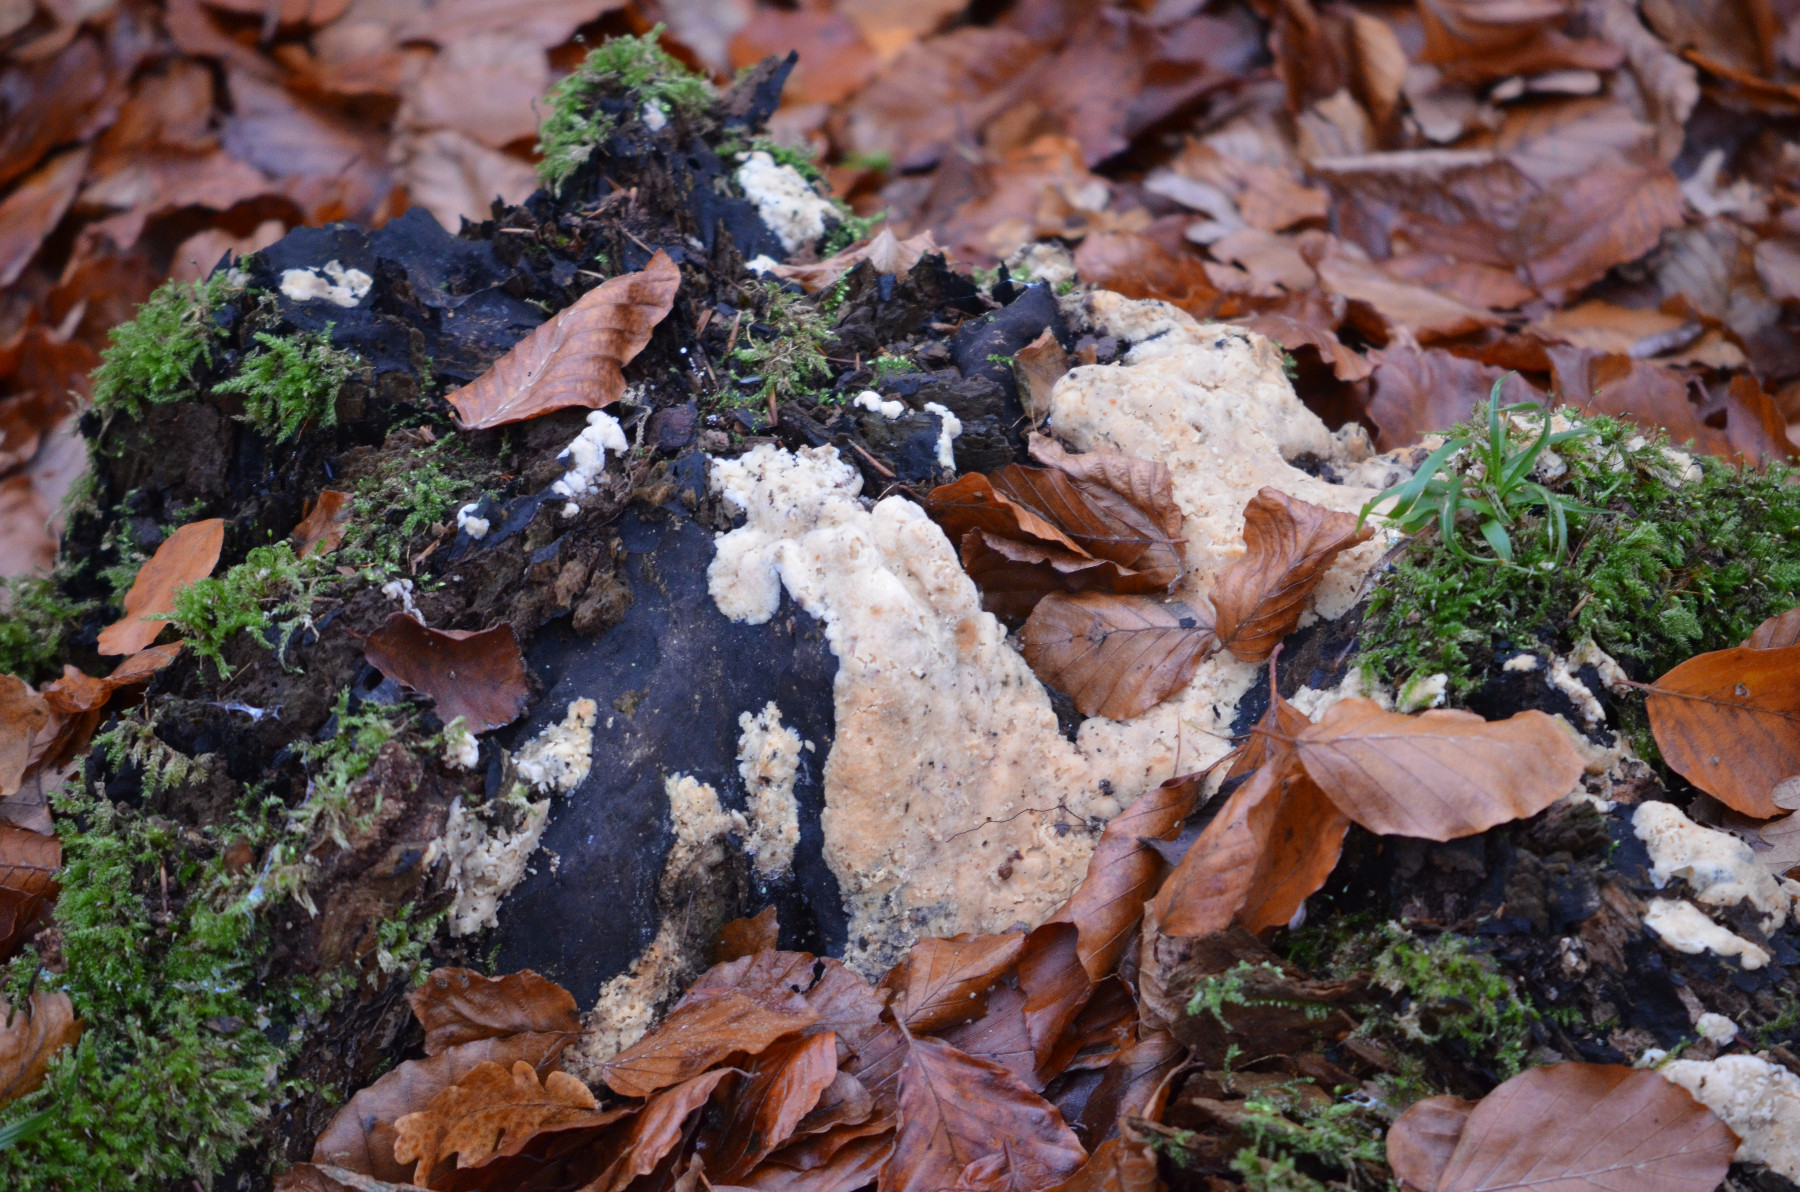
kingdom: Fungi
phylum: Basidiomycota
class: Agaricomycetes
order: Polyporales
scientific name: Polyporales
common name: poresvampordenen
